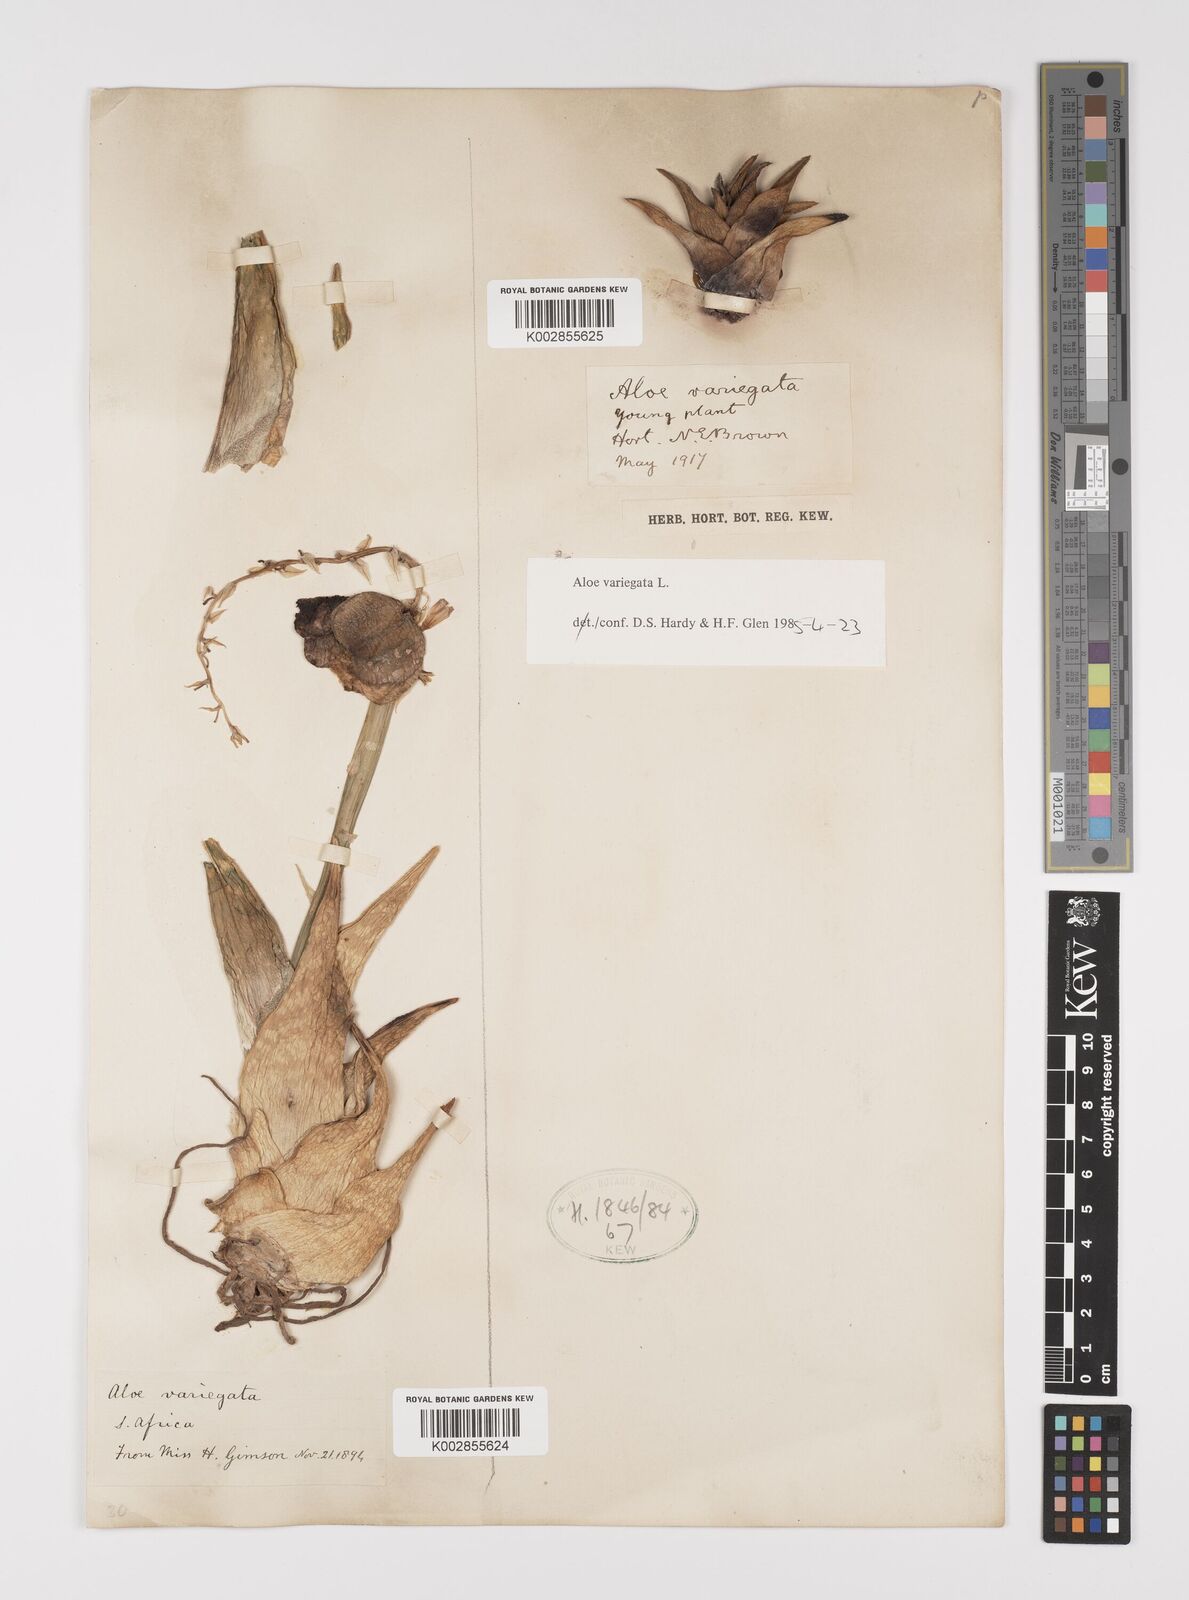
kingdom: Plantae
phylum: Tracheophyta
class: Liliopsida
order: Asparagales
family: Asphodelaceae
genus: Gonialoe
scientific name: Gonialoe variegata
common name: Aloe variegata
